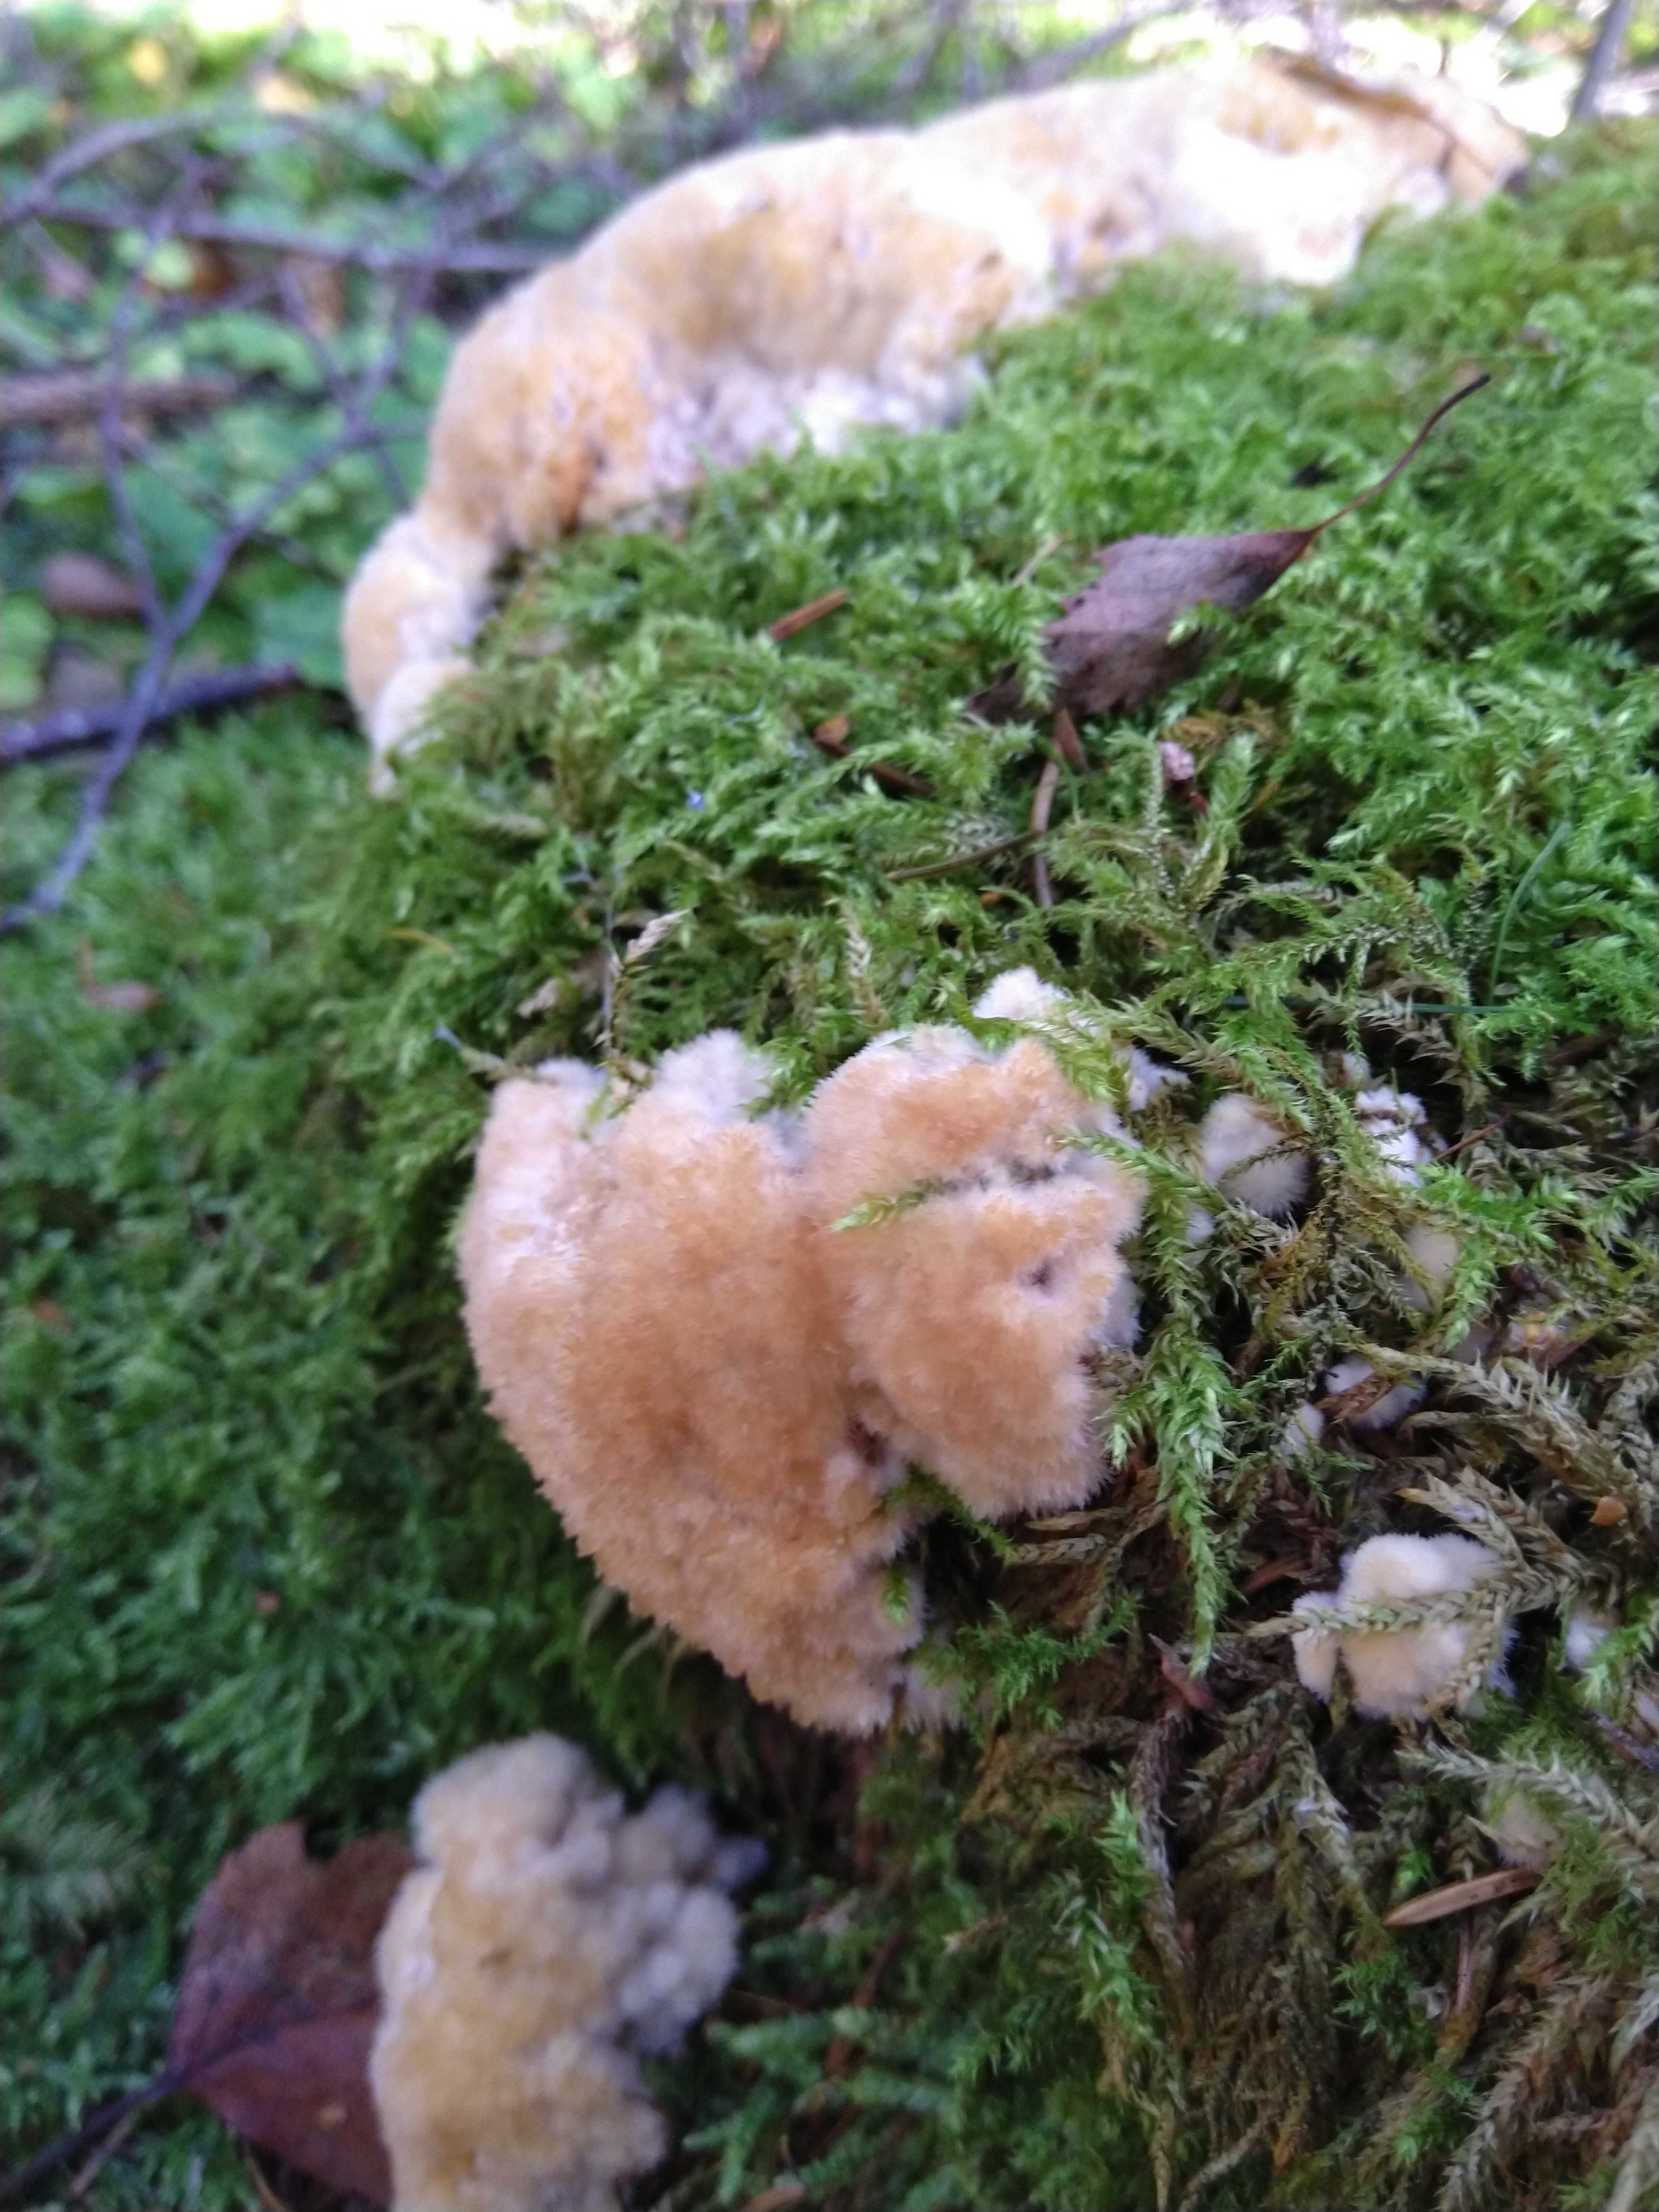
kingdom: Fungi
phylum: Basidiomycota
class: Agaricomycetes
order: Polyporales
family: Dacryobolaceae
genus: Postia
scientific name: Postia ptychogaster
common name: støvende kødporesvamp
